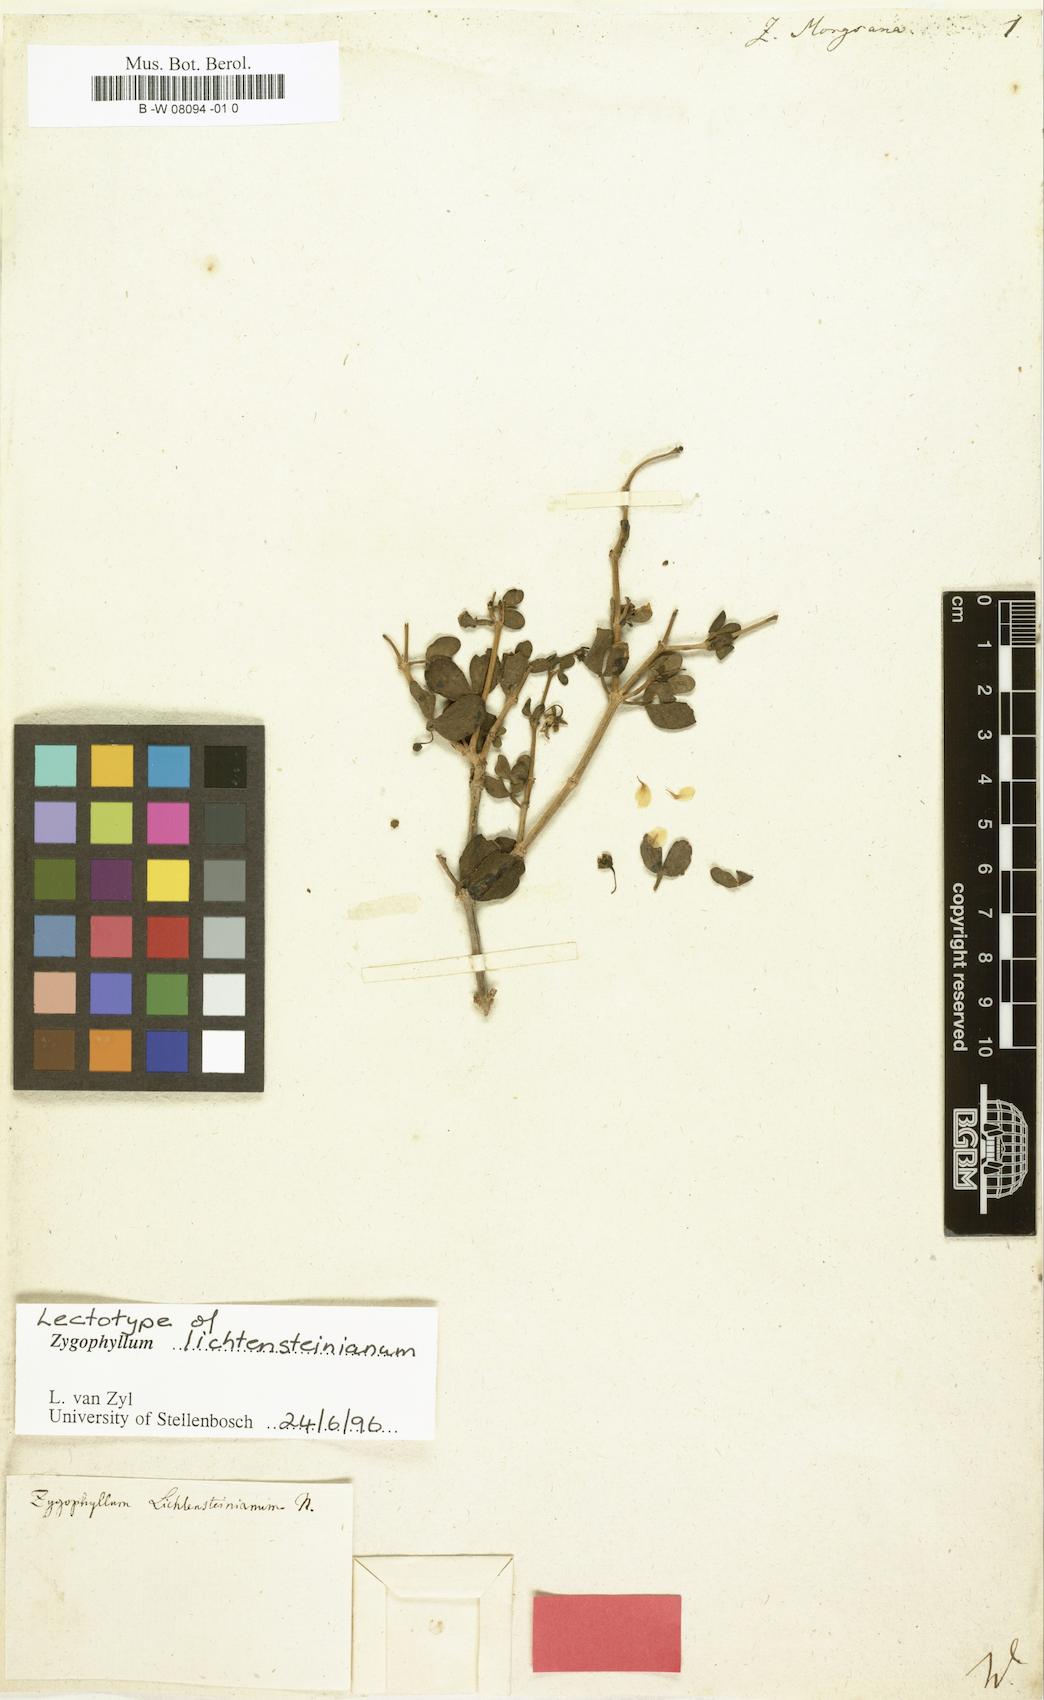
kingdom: Plantae
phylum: Tracheophyta
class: Magnoliopsida
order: Zygophyllales
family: Zygophyllaceae
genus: Roepera
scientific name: Roepera morgsana
